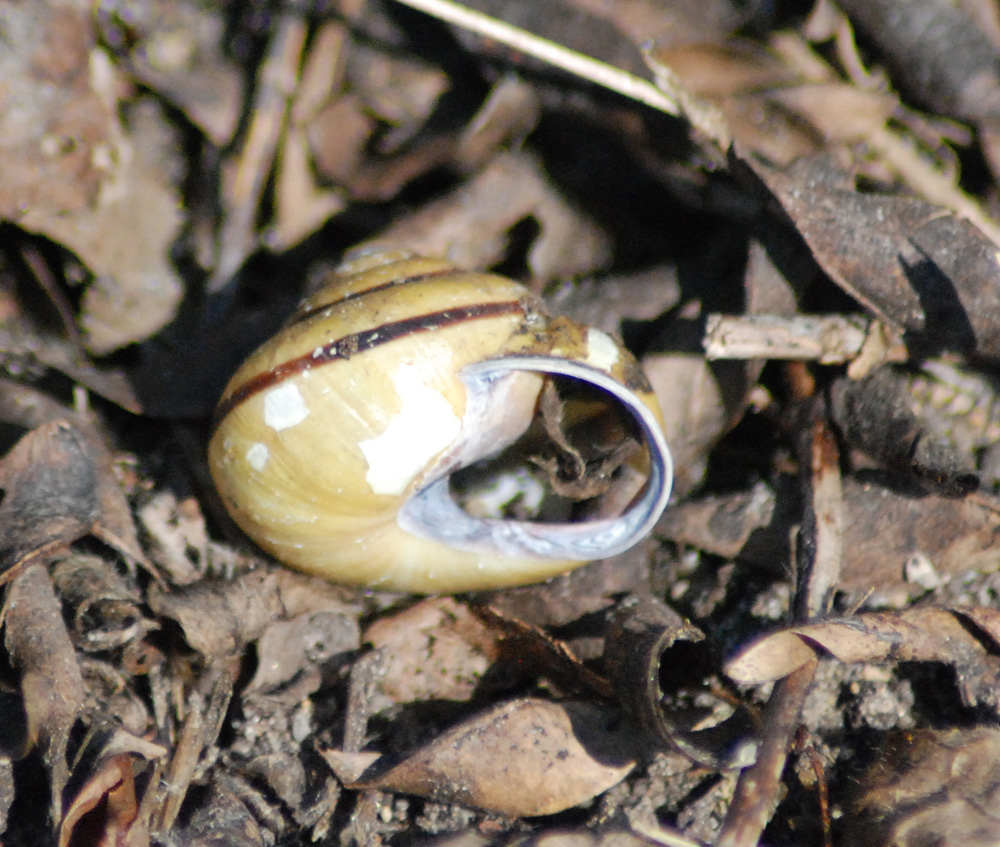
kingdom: Animalia
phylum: Mollusca
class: Gastropoda
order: Stylommatophora
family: Helicidae
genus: Cepaea
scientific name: Cepaea nemoralis
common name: Grovesnail
